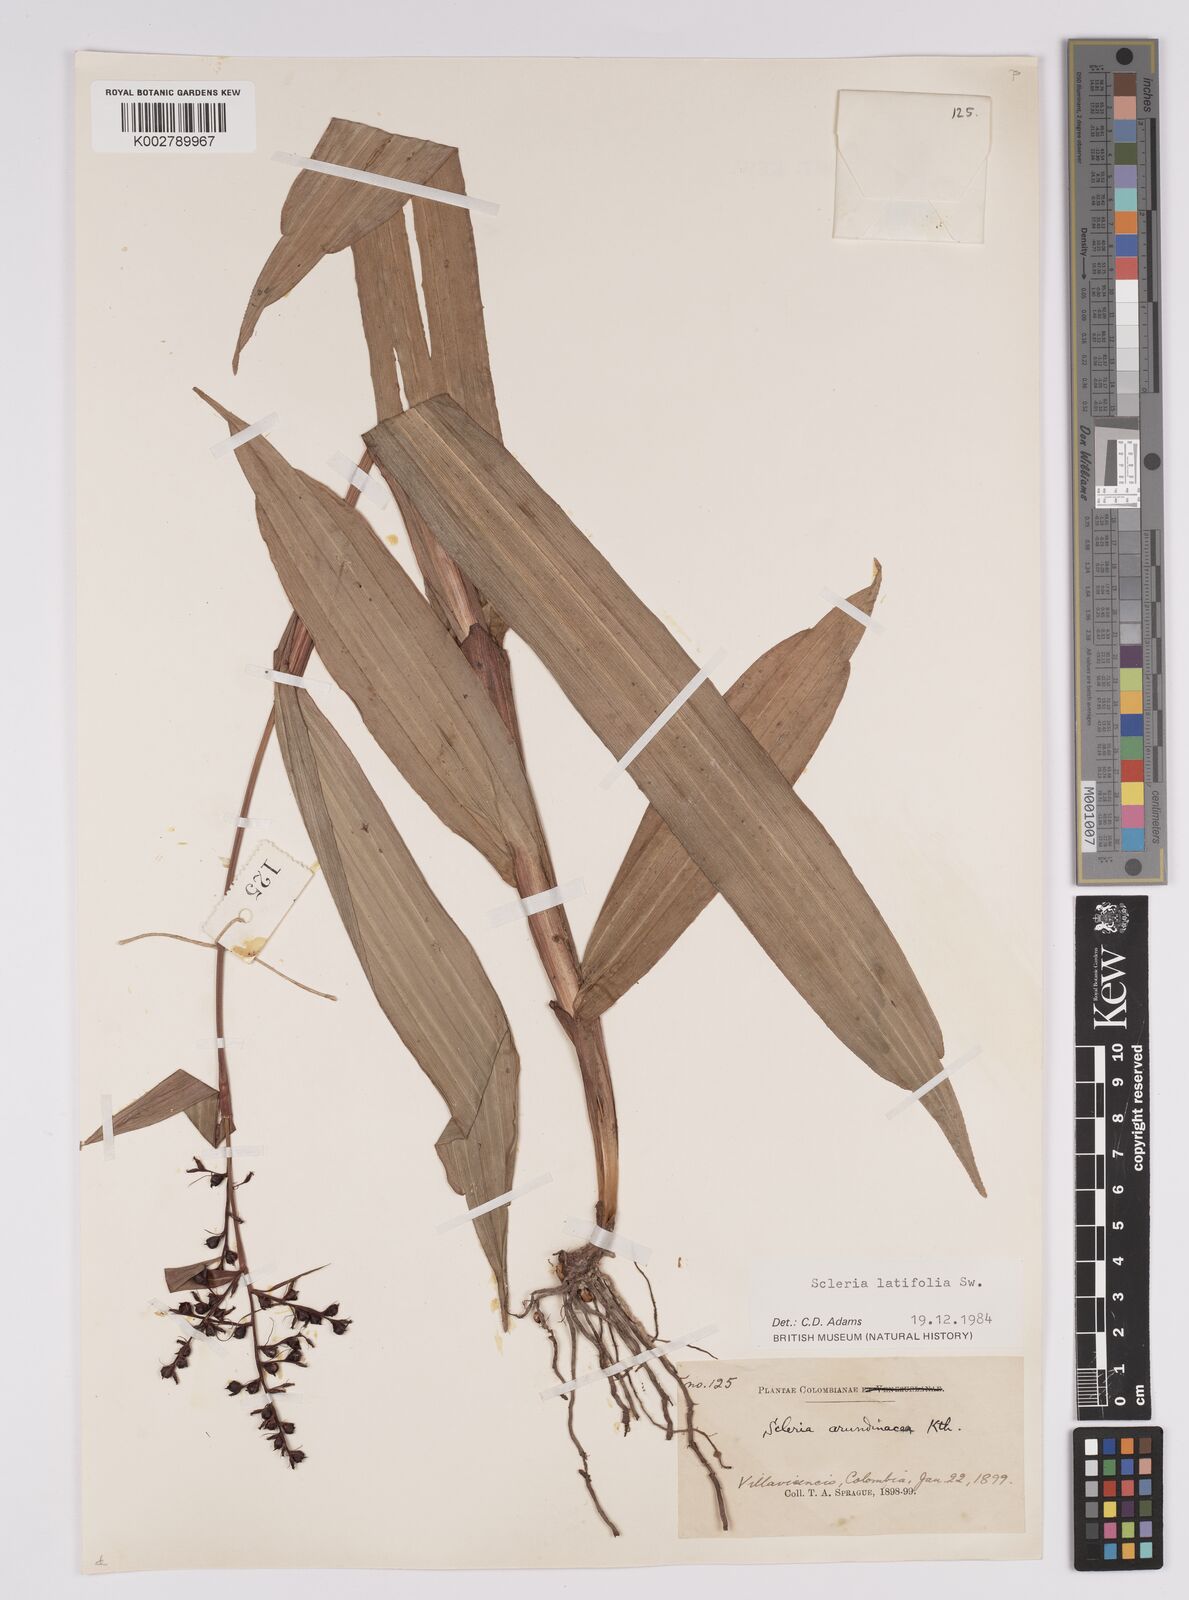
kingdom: Plantae
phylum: Tracheophyta
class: Liliopsida
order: Poales
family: Cyperaceae
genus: Scleria
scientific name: Scleria latifolia
